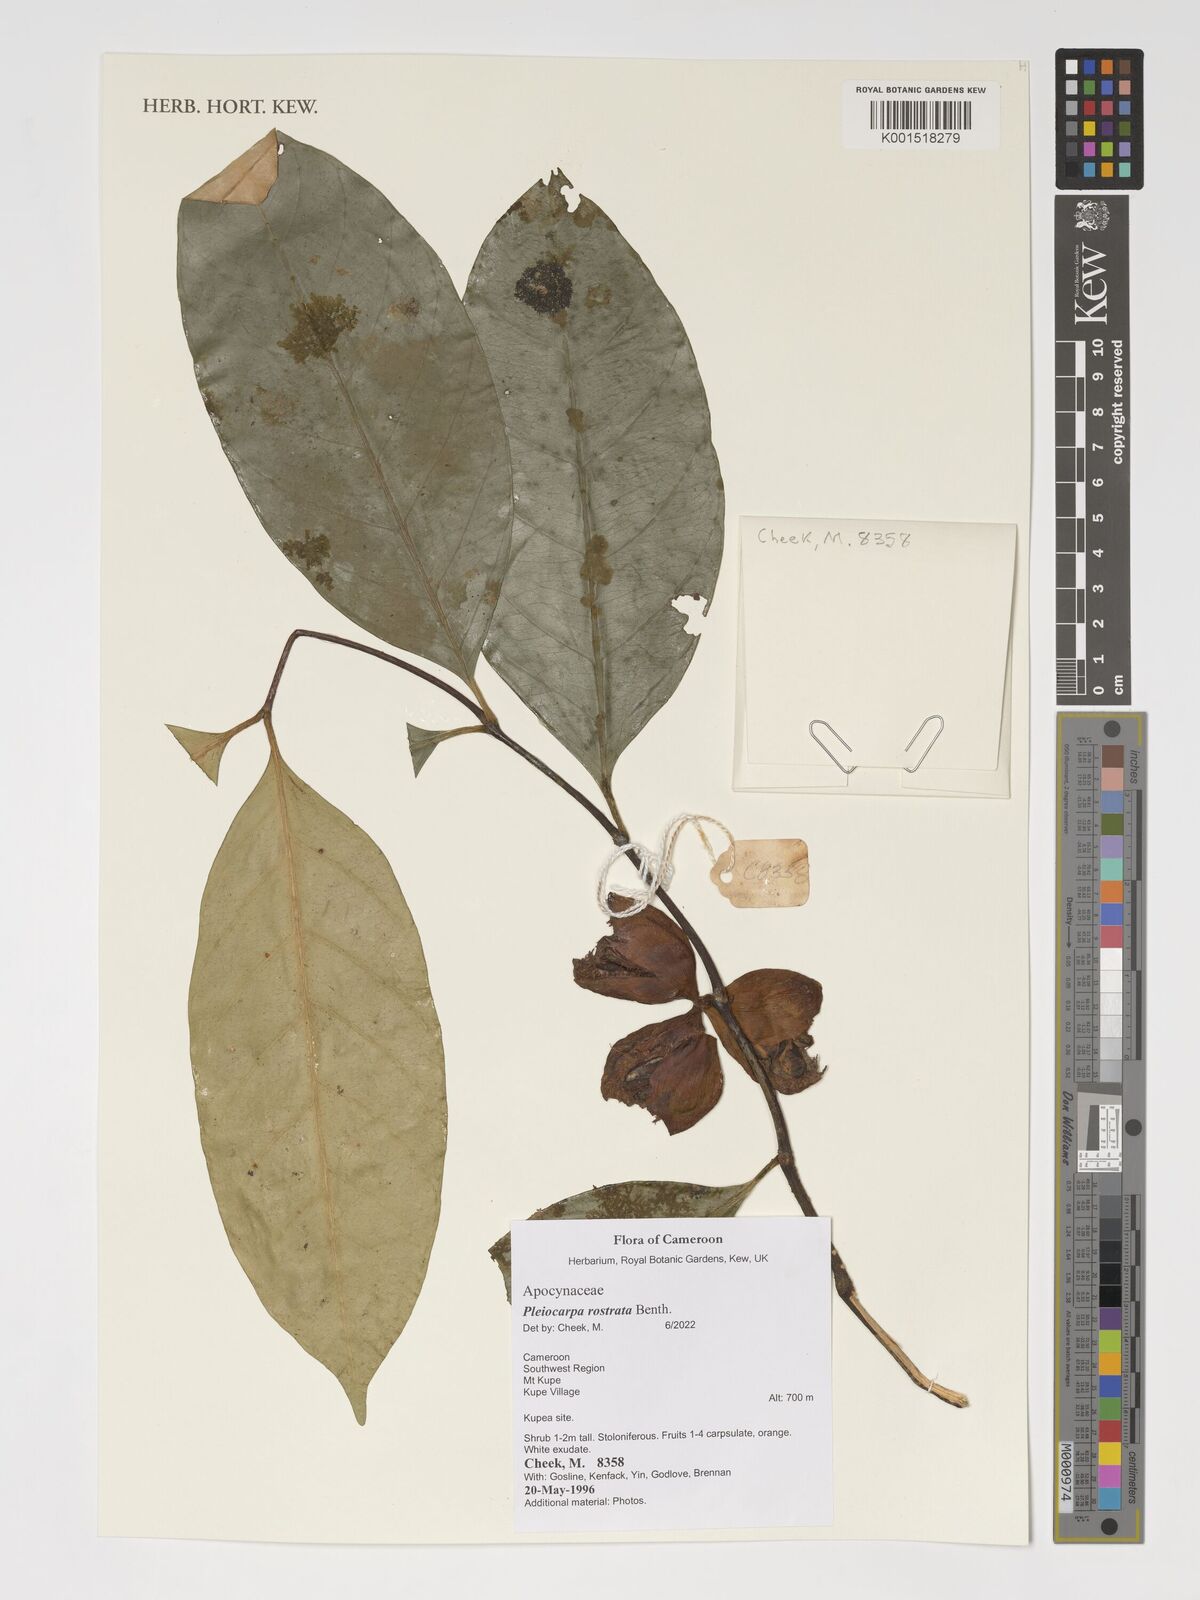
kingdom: Plantae
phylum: Tracheophyta
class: Magnoliopsida
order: Gentianales
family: Apocynaceae
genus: Pleiocarpa
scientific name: Pleiocarpa rostrata
